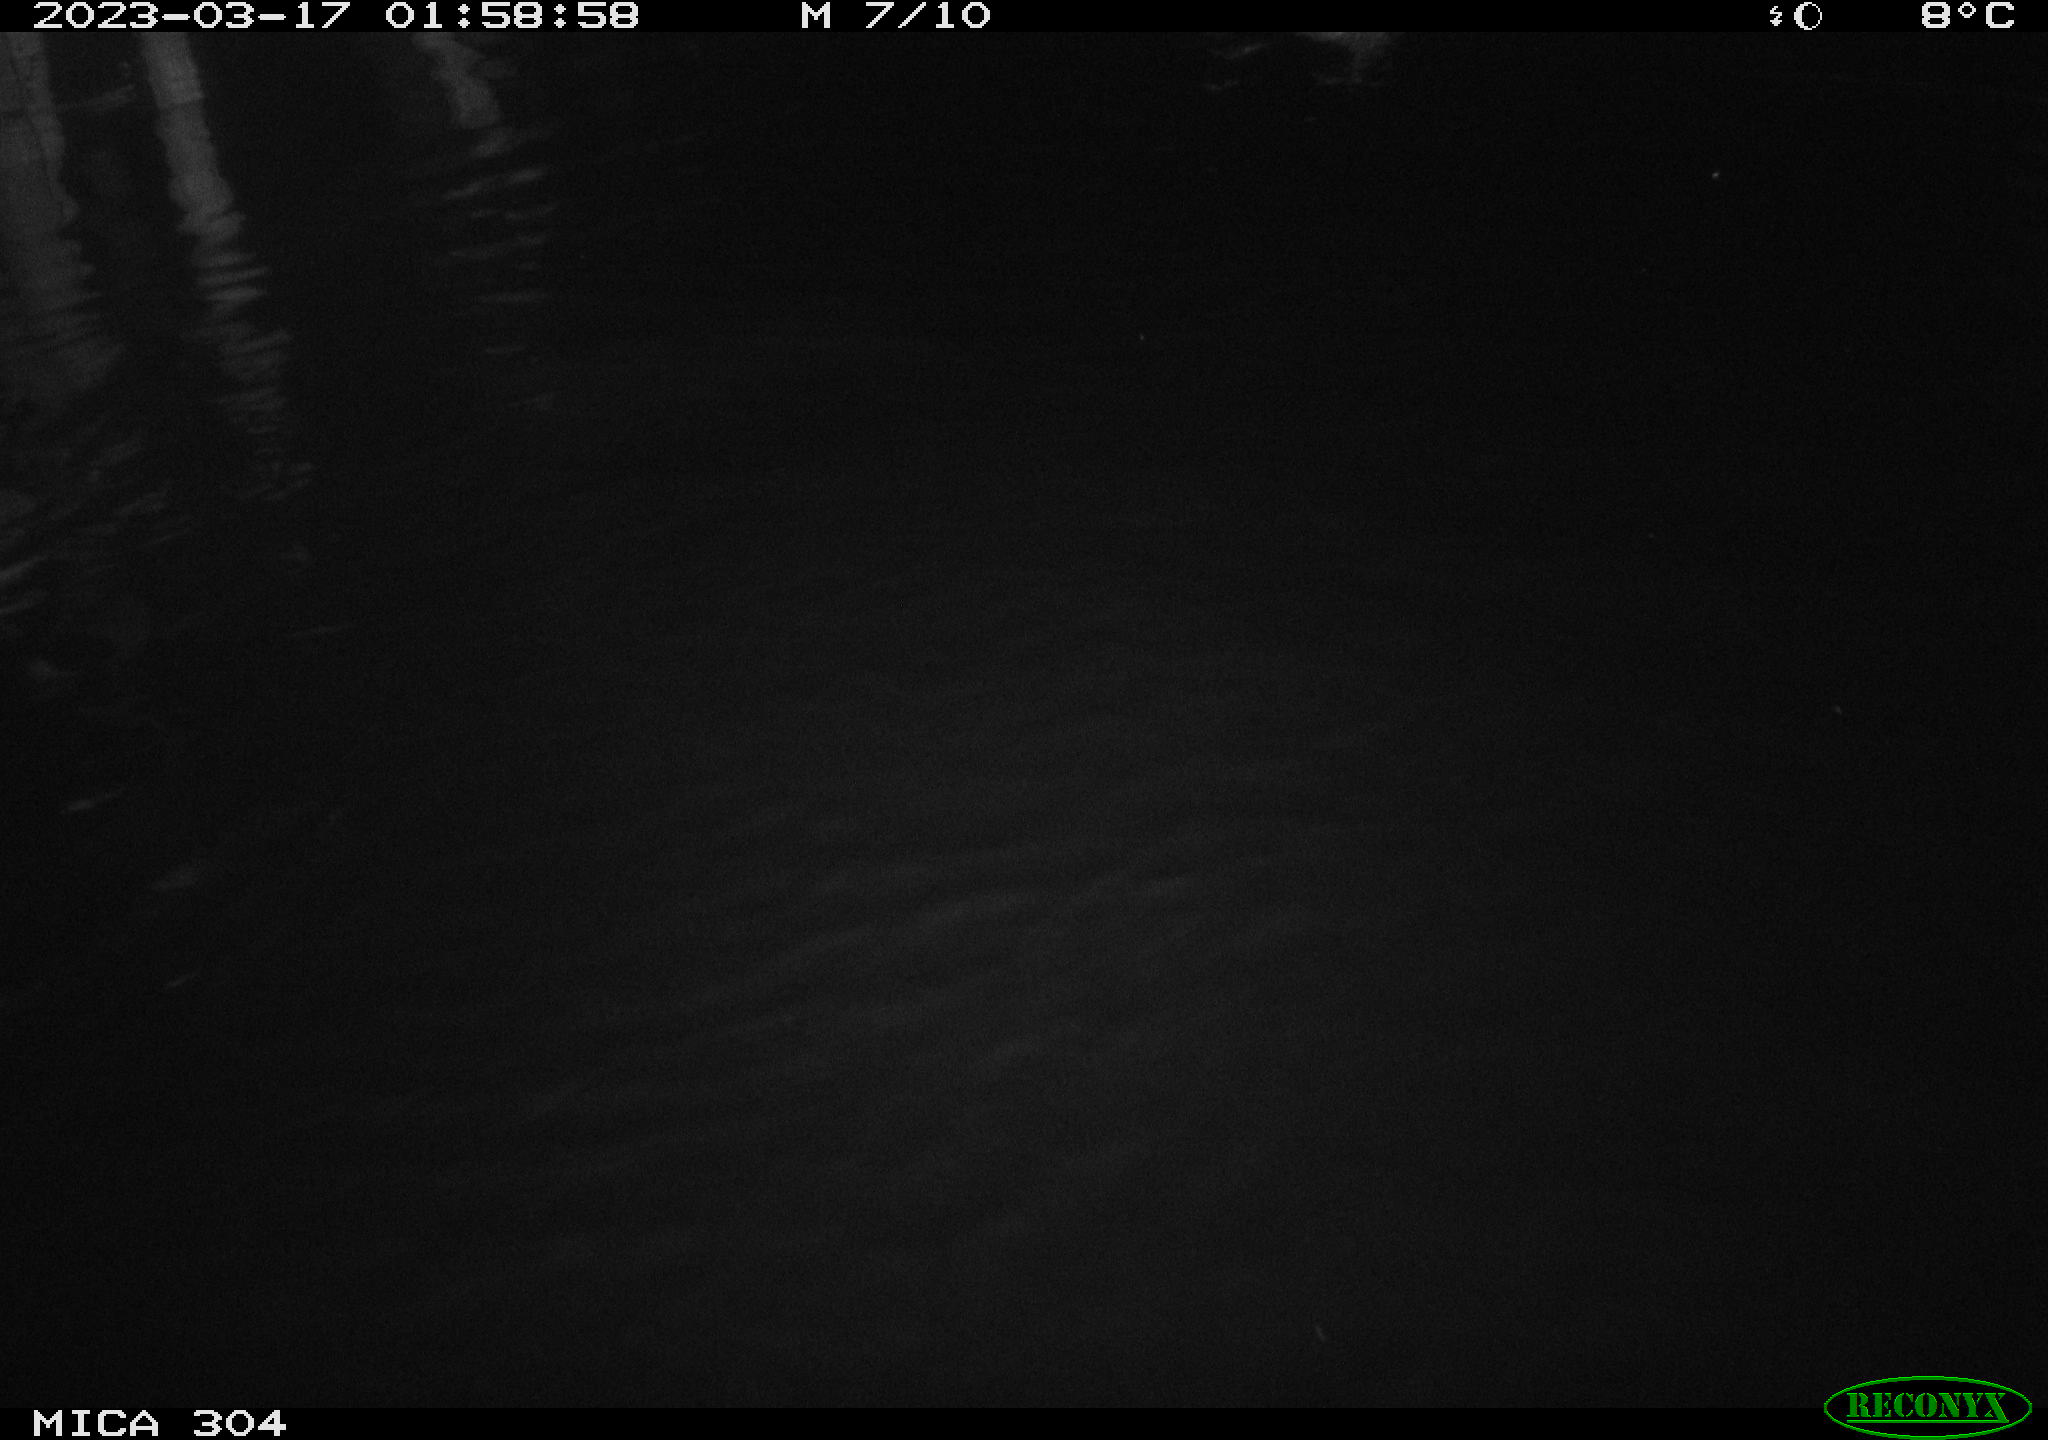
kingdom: Animalia
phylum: Chordata
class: Aves
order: Anseriformes
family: Anatidae
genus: Anas
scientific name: Anas
